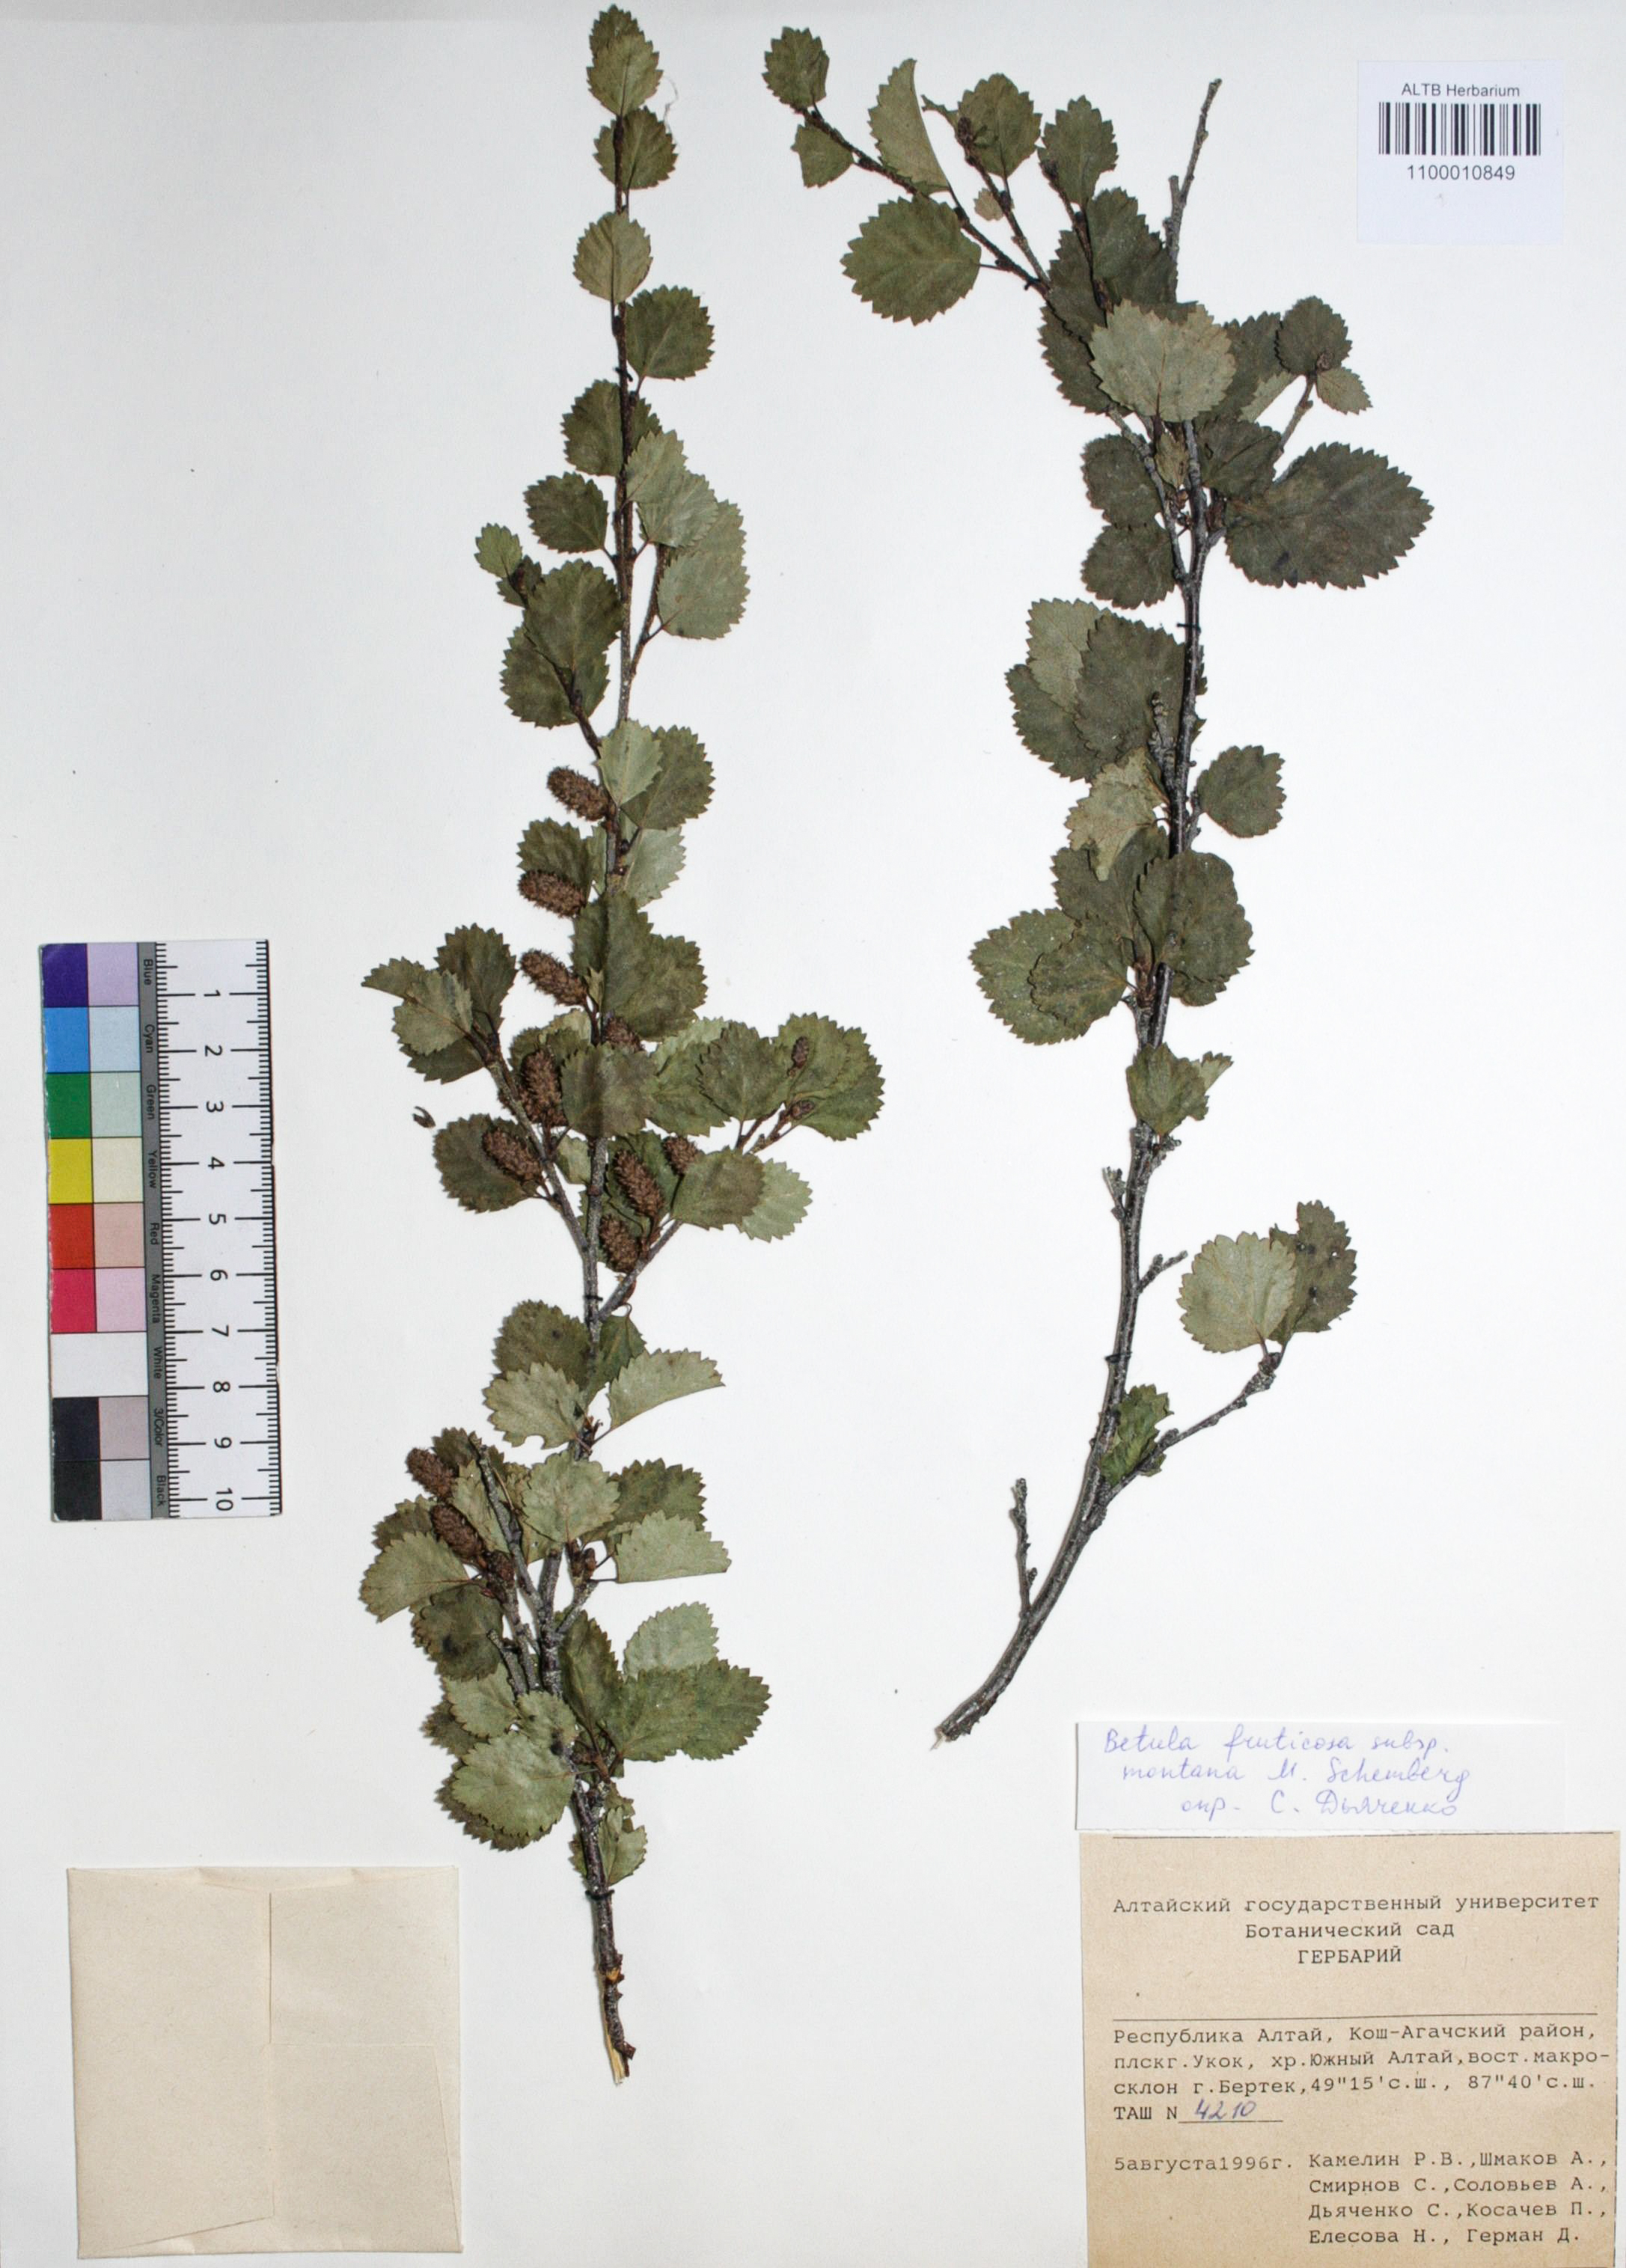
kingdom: Plantae
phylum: Tracheophyta
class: Magnoliopsida
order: Fagales
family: Betulaceae
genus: Betula
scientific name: Betula fruticosa
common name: Japanese bog birch
